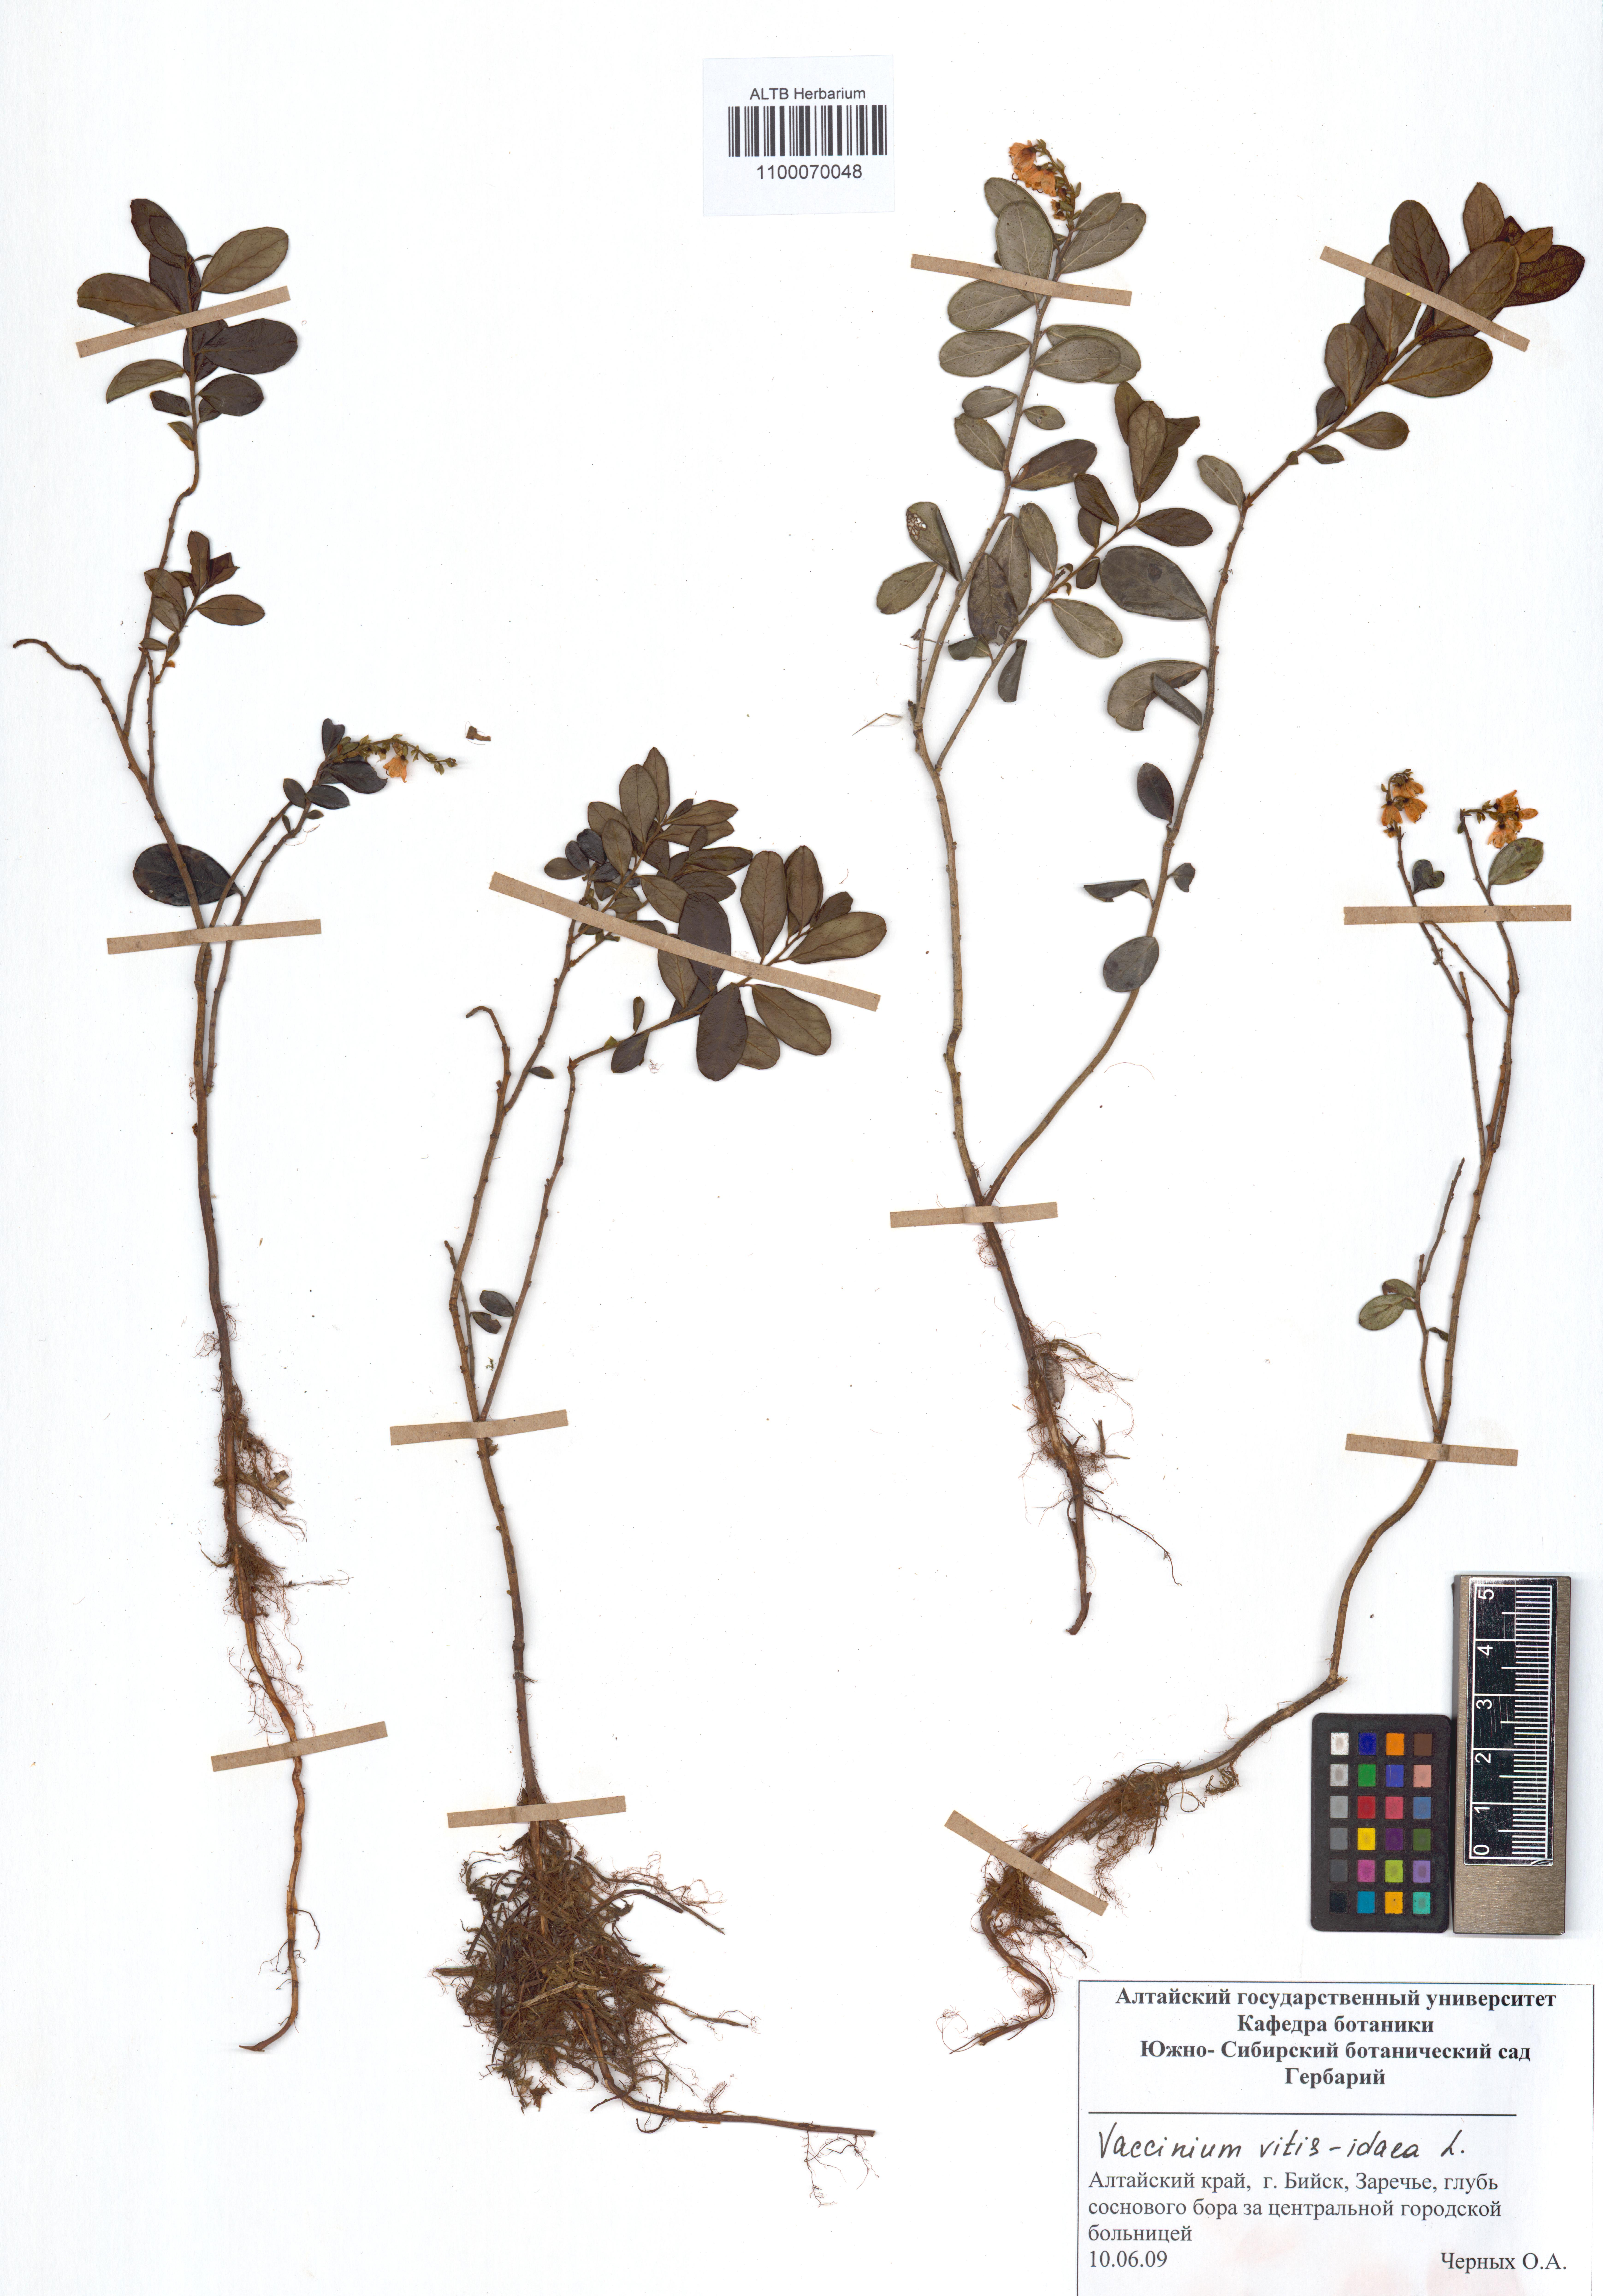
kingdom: Plantae
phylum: Tracheophyta
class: Magnoliopsida
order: Ericales
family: Ericaceae
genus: Vaccinium
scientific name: Vaccinium vitis-idaea
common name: Cowberry
